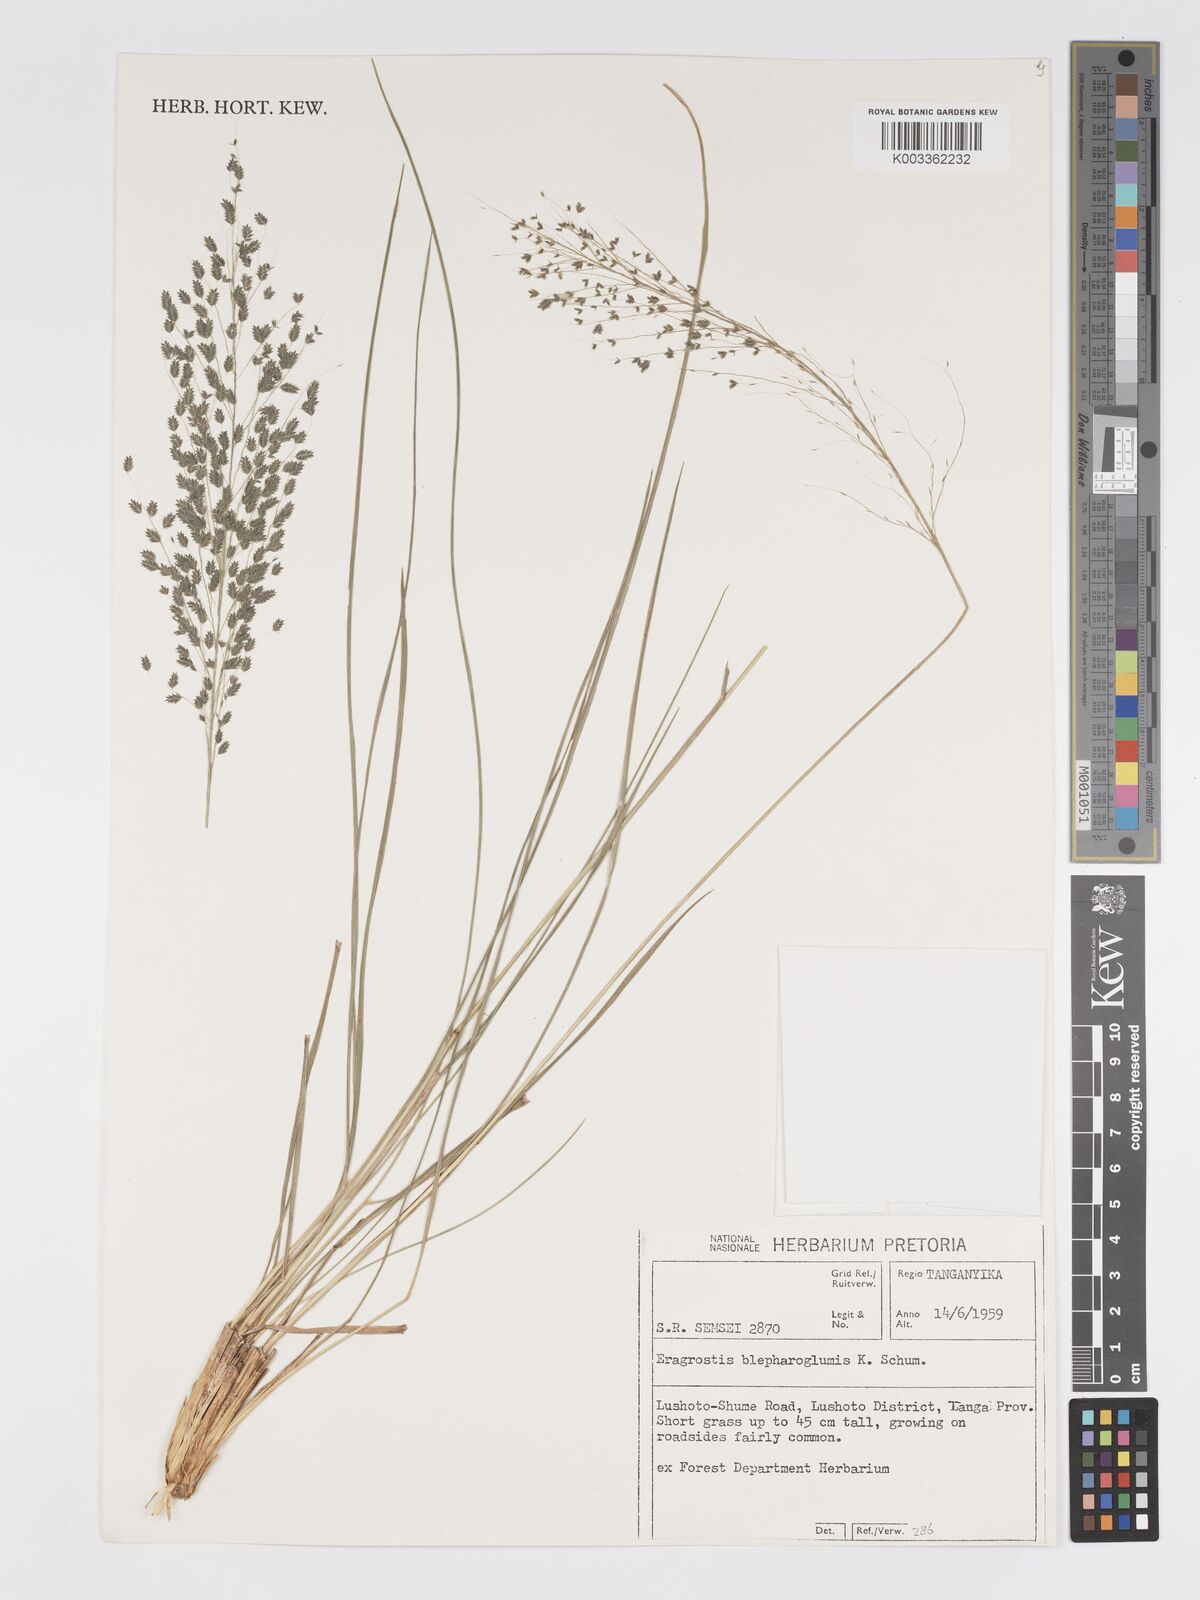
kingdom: Plantae
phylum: Tracheophyta
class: Liliopsida
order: Poales
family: Poaceae
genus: Eragrostis
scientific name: Eragrostis olivacea
